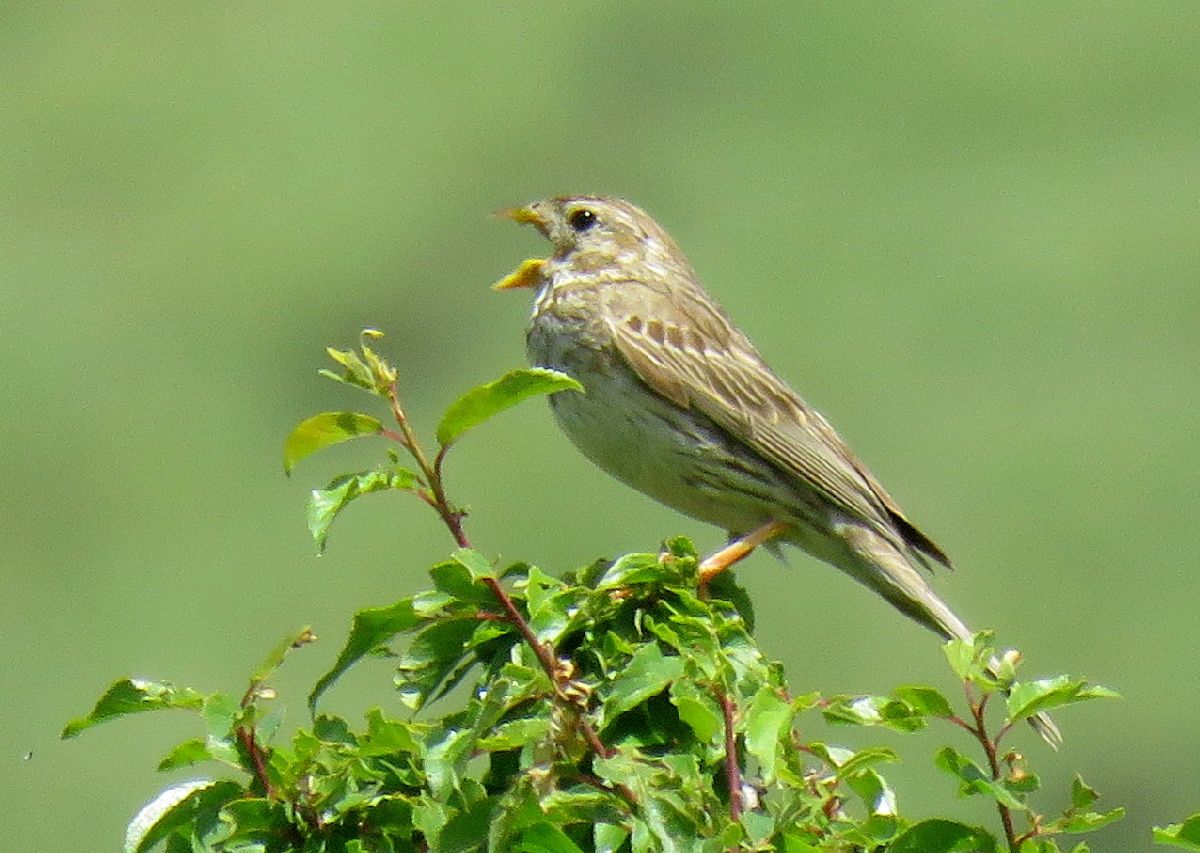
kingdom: Animalia
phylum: Chordata
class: Aves
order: Passeriformes
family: Emberizidae
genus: Emberiza
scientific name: Emberiza calandra
